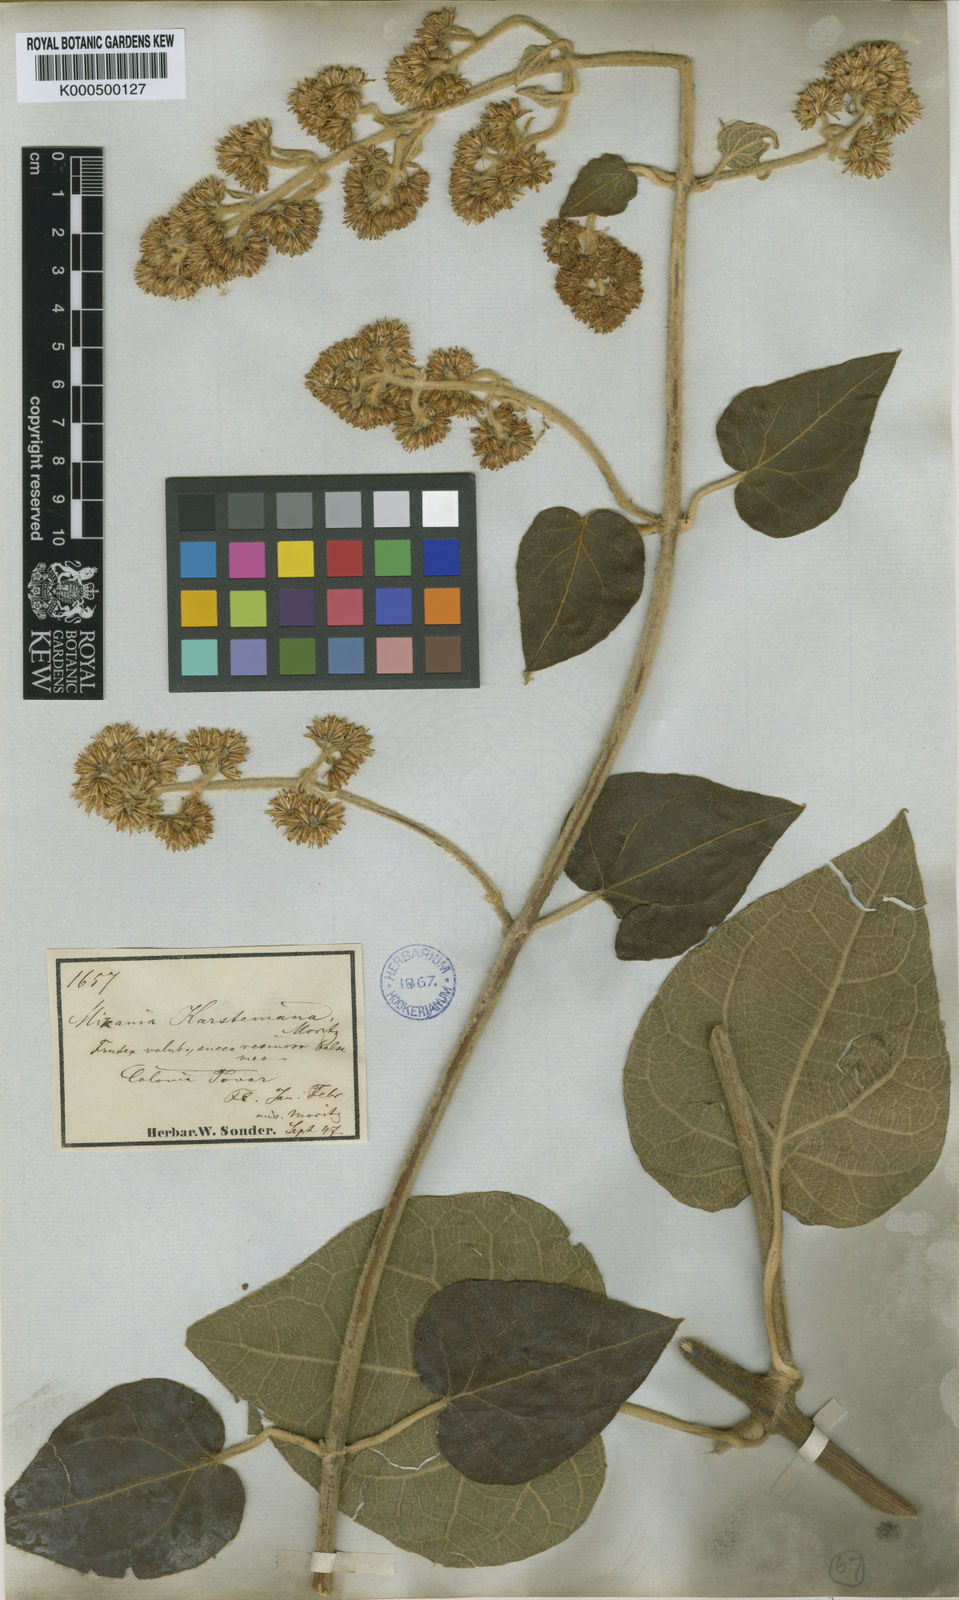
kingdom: Plantae
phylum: Tracheophyta
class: Magnoliopsida
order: Asterales
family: Asteraceae
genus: Mikania
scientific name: Mikania
